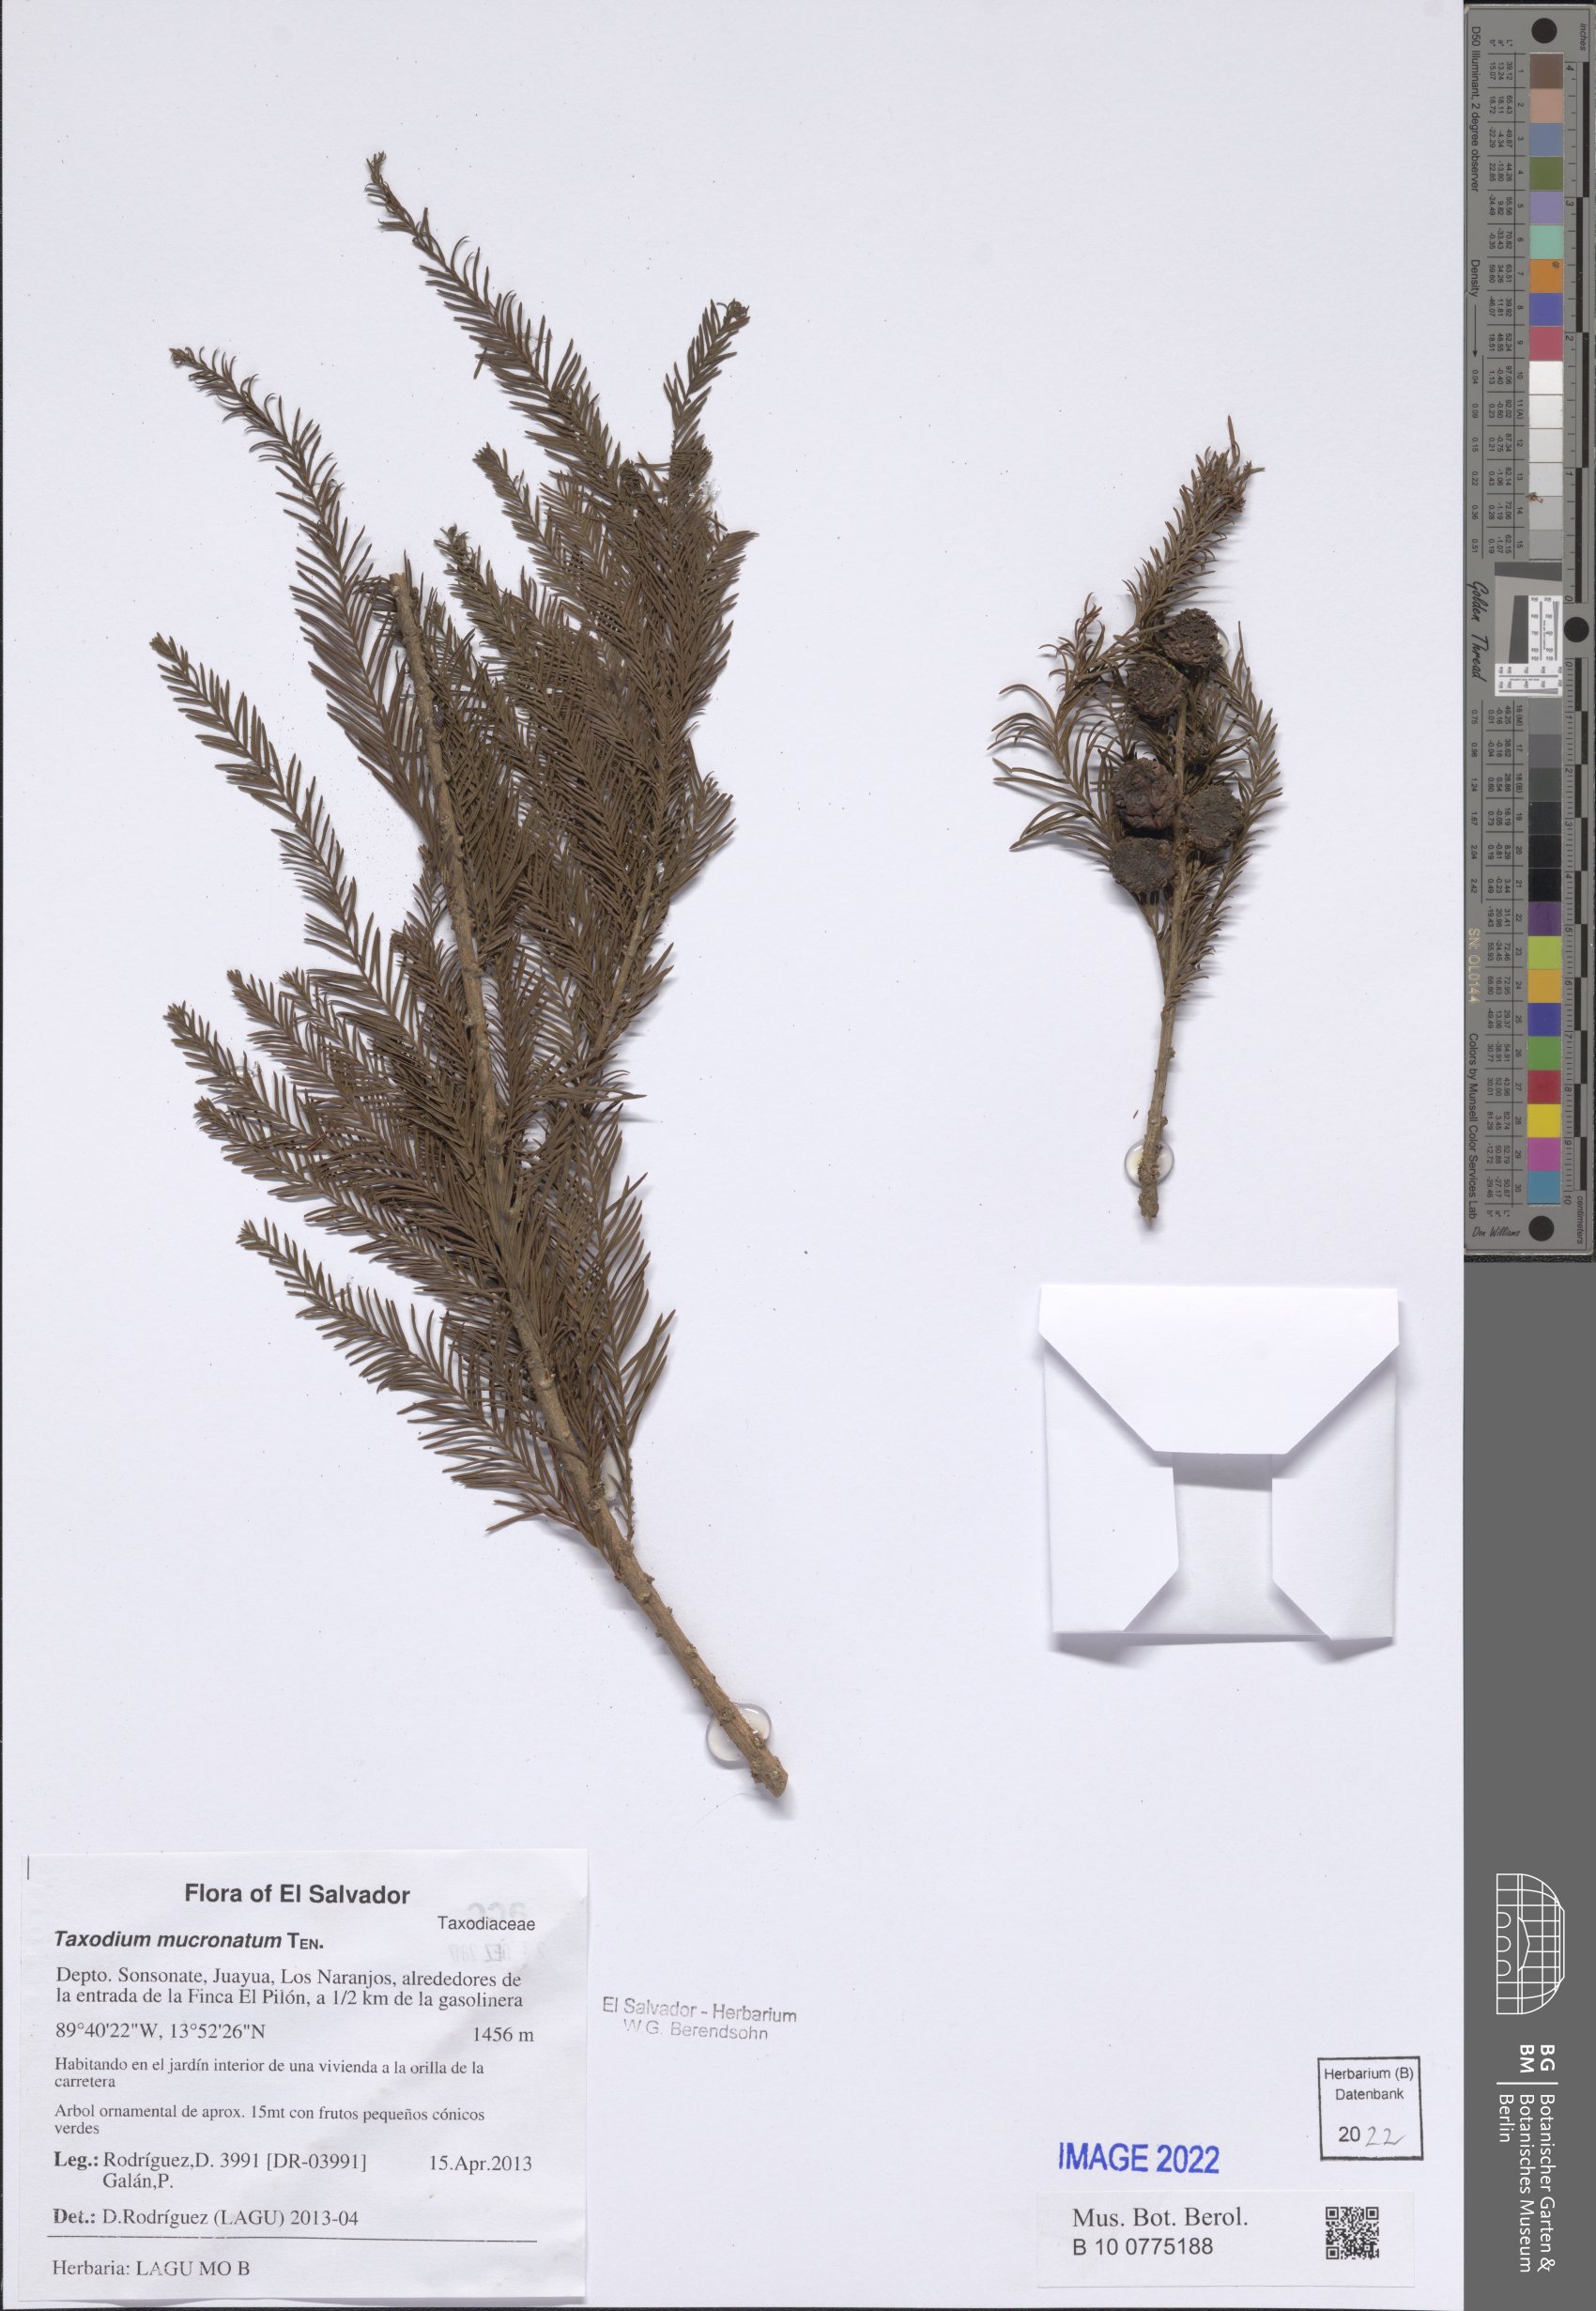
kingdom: Plantae
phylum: Tracheophyta
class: Pinopsida
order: Pinales
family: Cupressaceae
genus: Taxodium
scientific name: Taxodium mucronatum
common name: Montezume bald cypress
